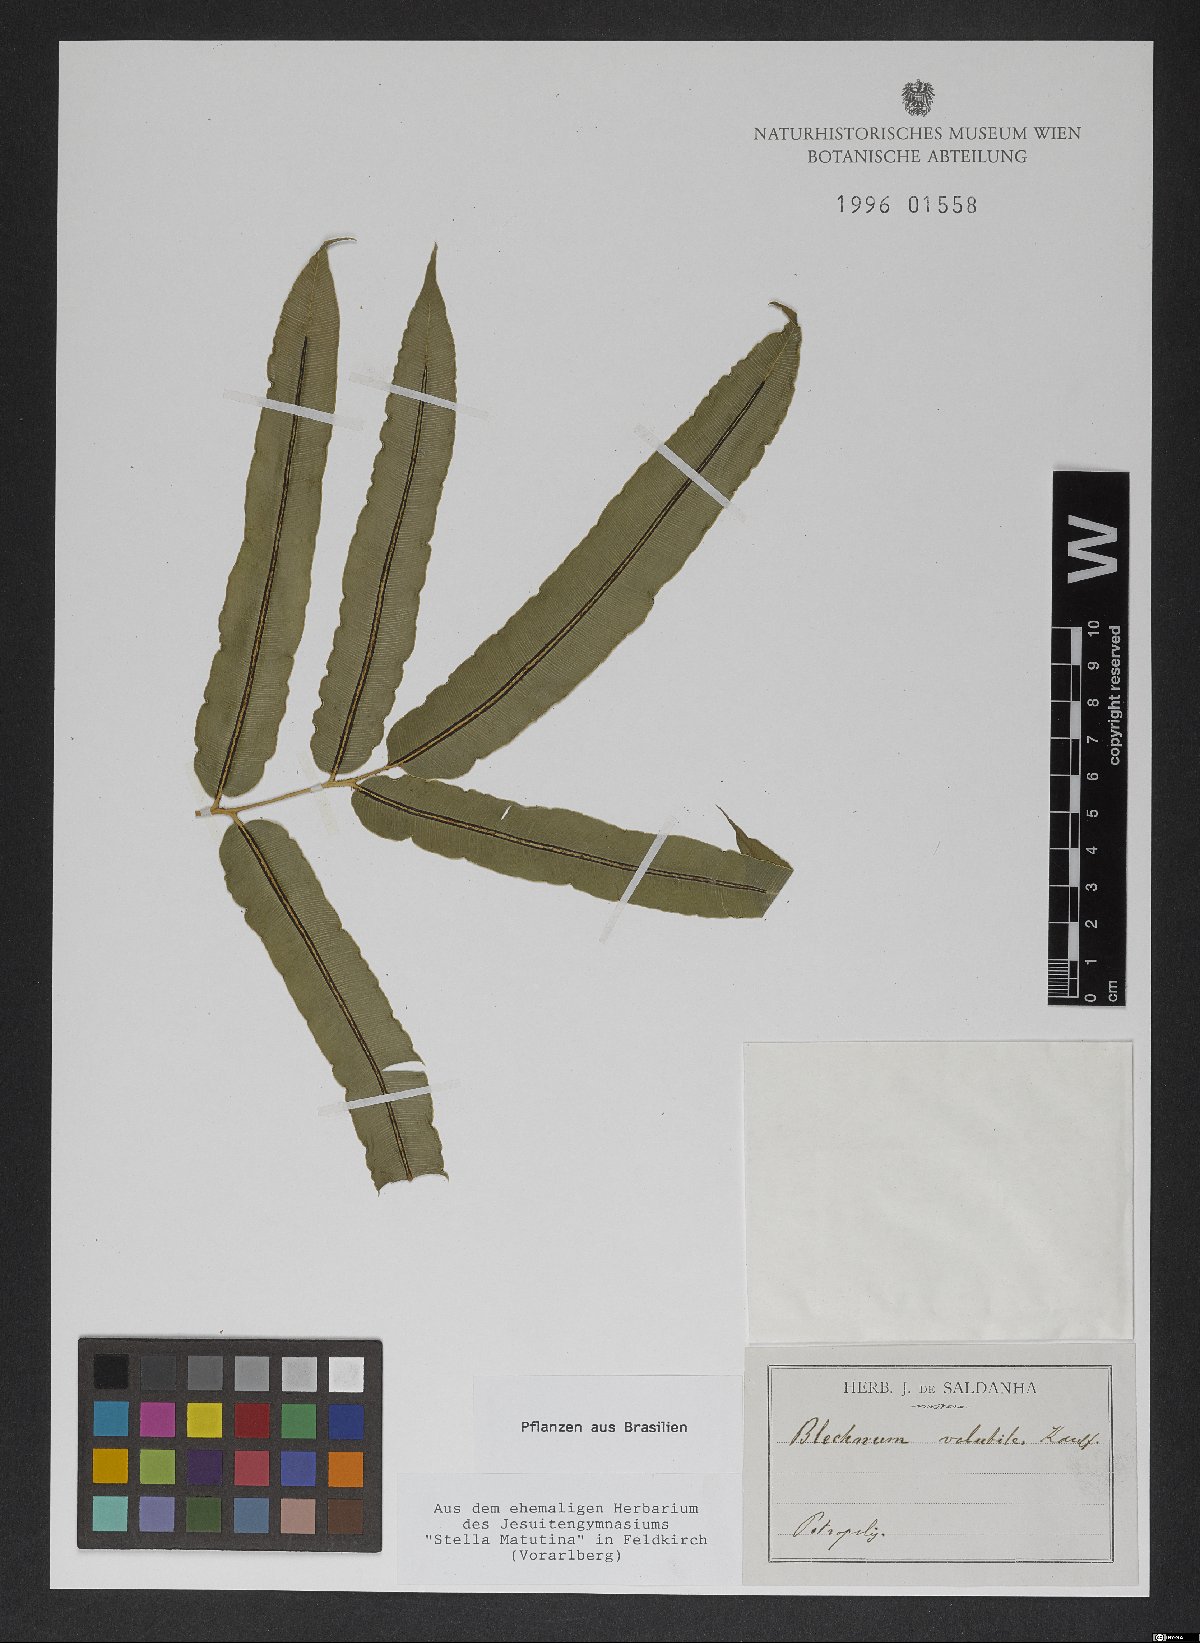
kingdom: Plantae
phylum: Tracheophyta
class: Polypodiopsida
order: Polypodiales
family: Blechnaceae
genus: Salpichlaena
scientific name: Salpichlaena volubilis
